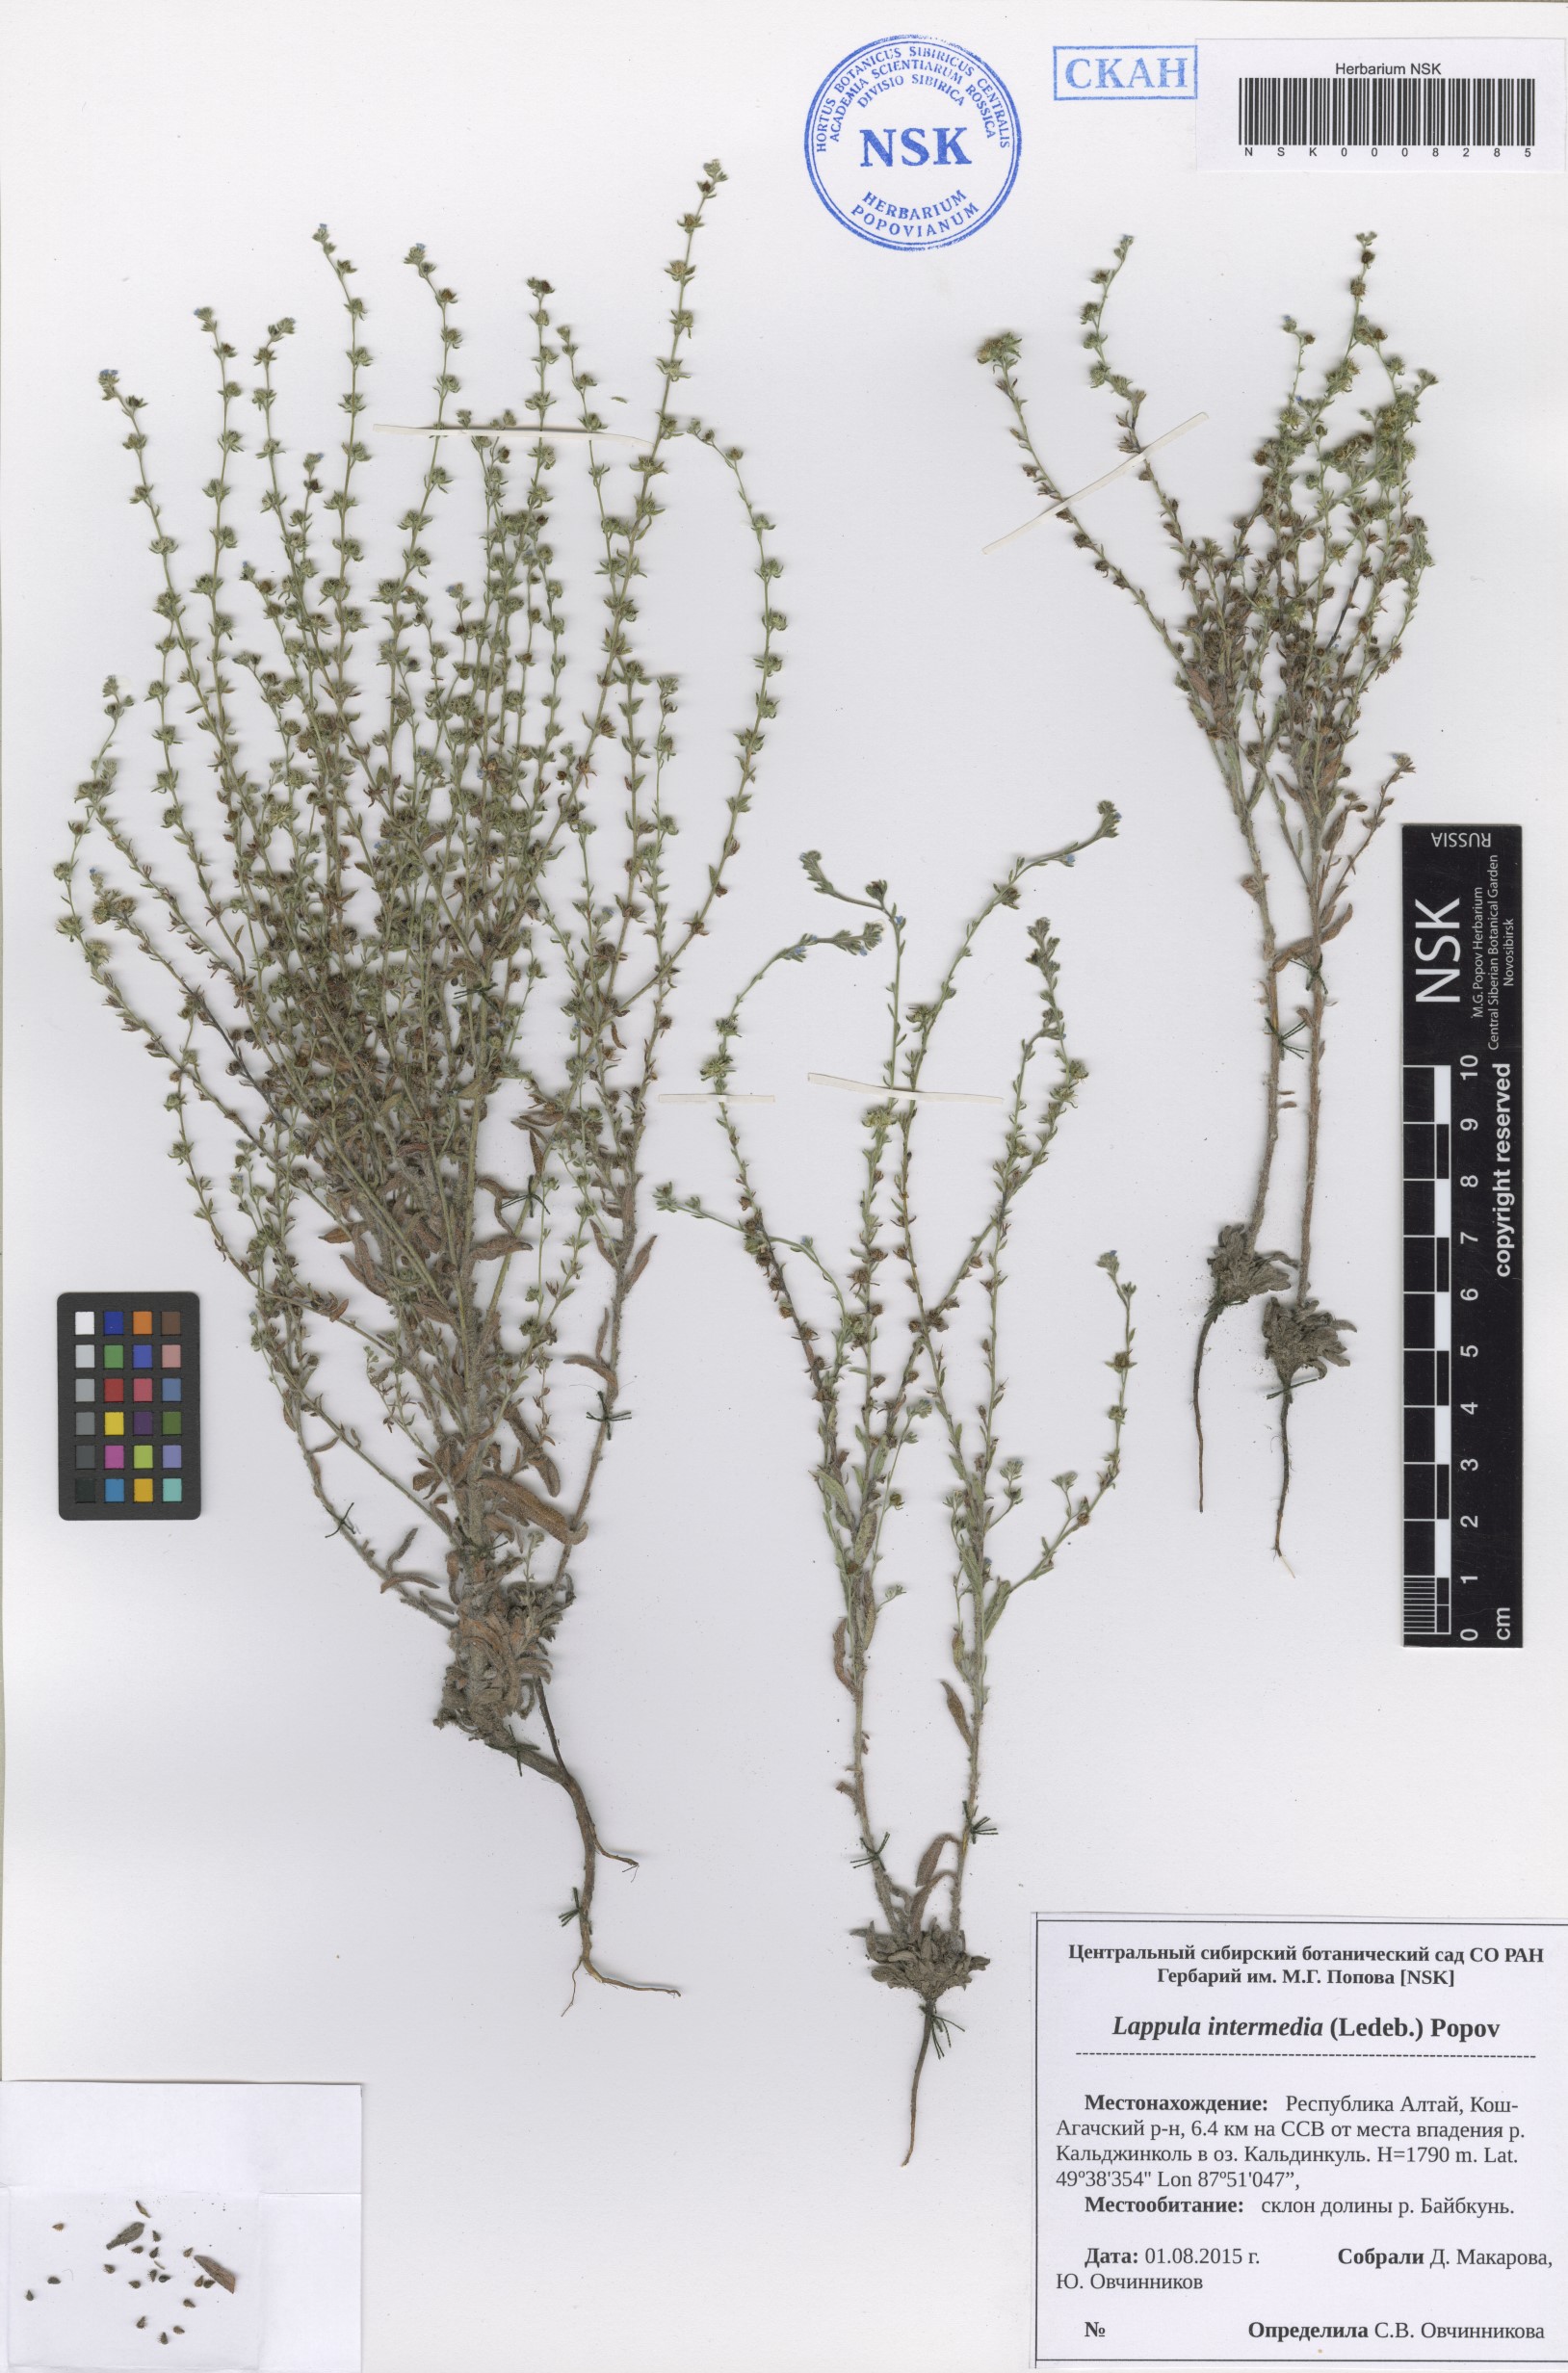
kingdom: Plantae
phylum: Tracheophyta
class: Magnoliopsida
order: Boraginales
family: Boraginaceae
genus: Lappula
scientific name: Lappula intermedia
